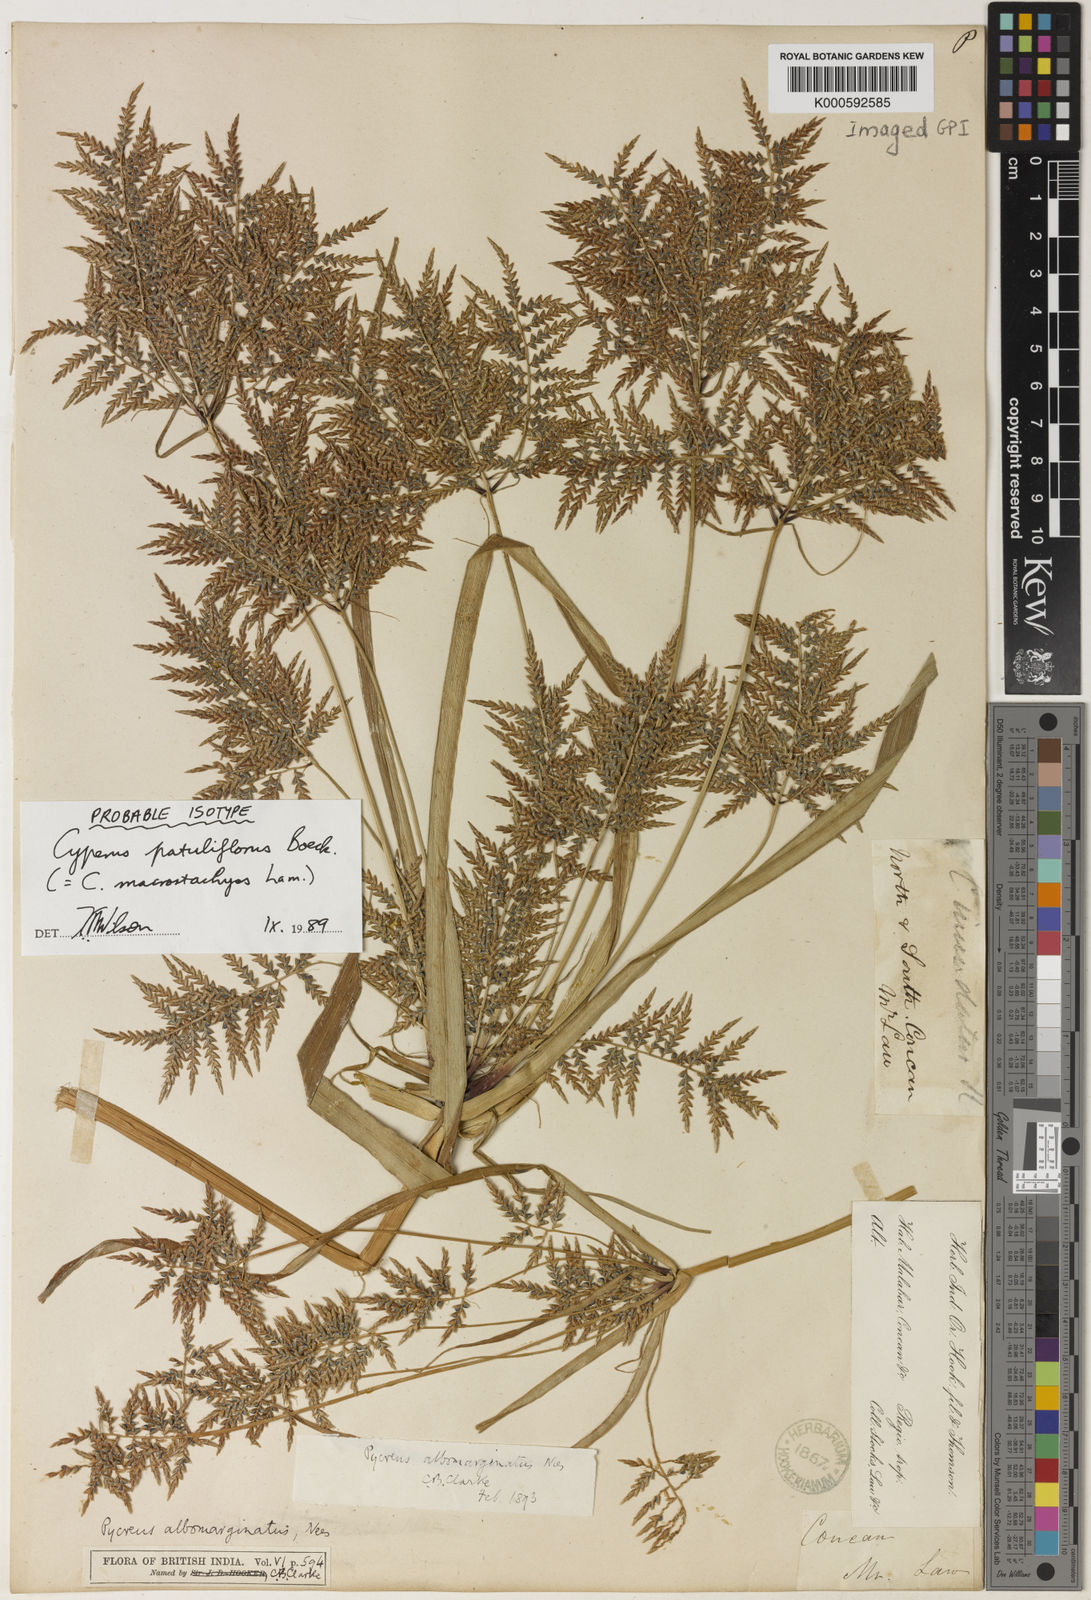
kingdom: Plantae
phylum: Tracheophyta
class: Liliopsida
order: Poales
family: Cyperaceae
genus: Cyperus
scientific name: Cyperus macrostachyos
